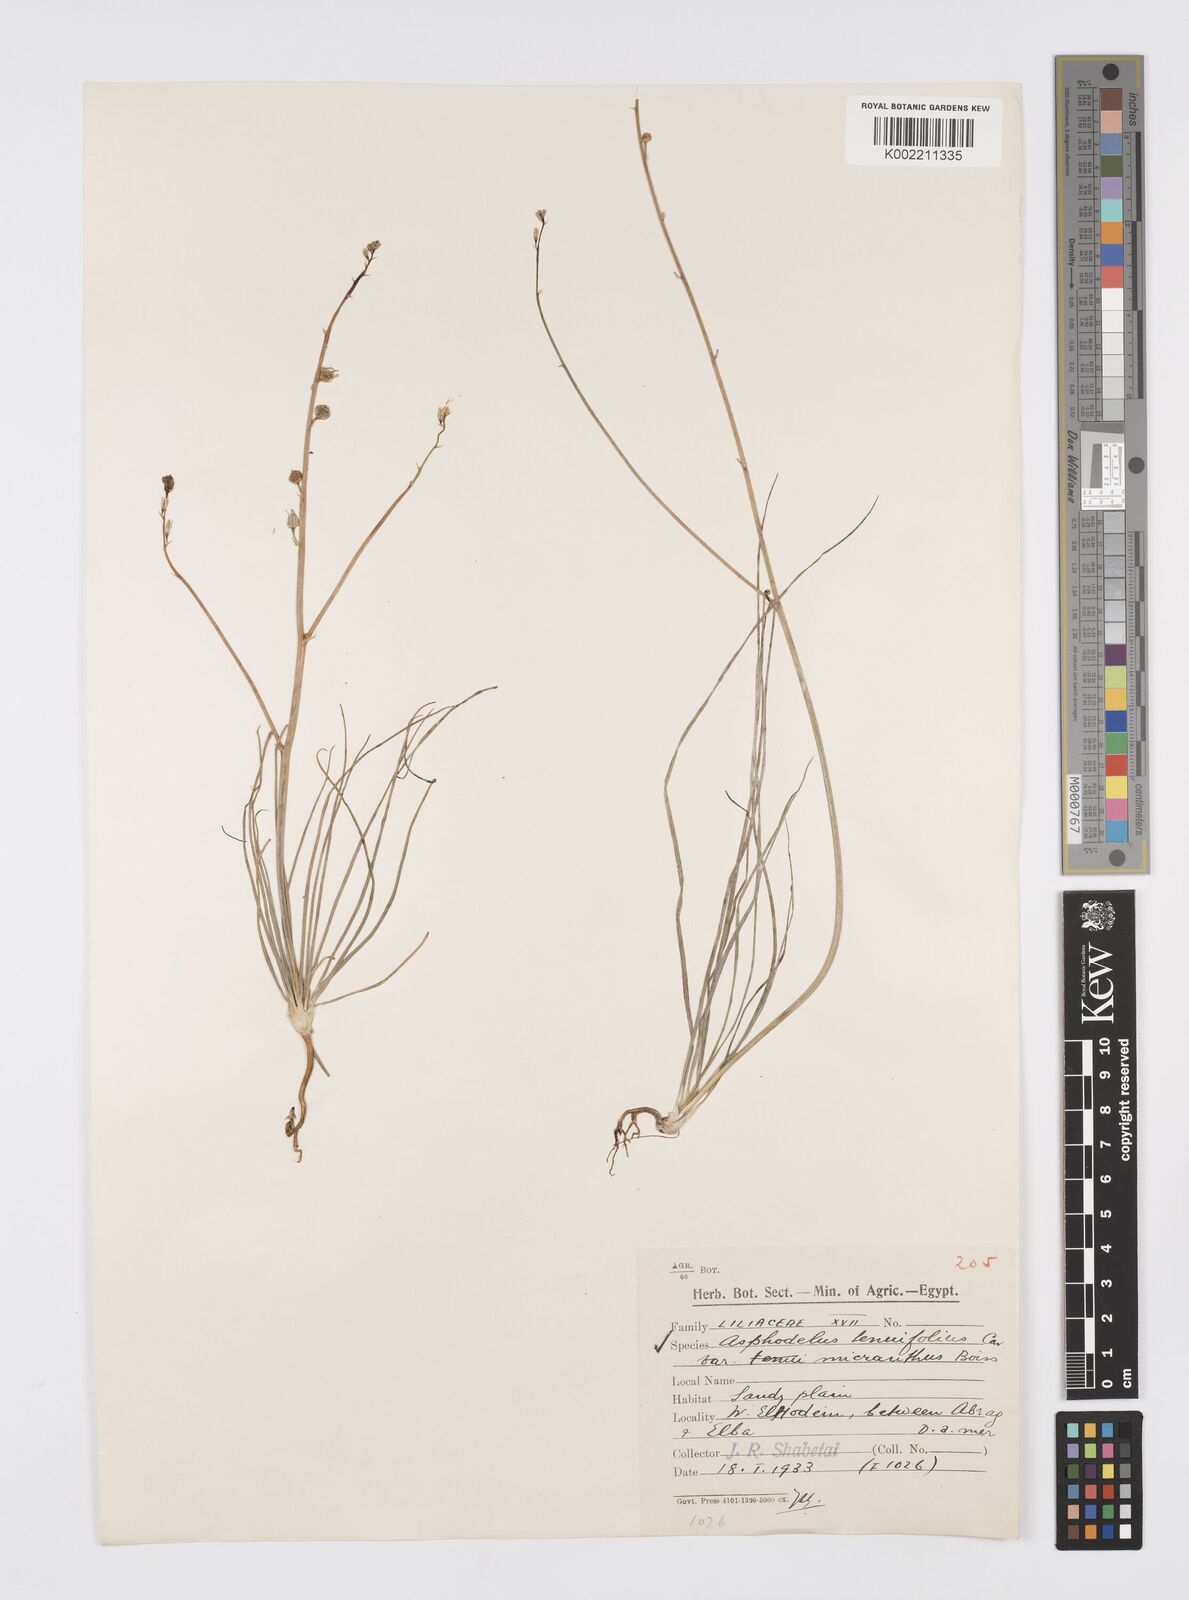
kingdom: Plantae
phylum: Tracheophyta
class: Liliopsida
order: Asparagales
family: Asphodelaceae
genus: Asphodelus
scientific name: Asphodelus tenuifolius
